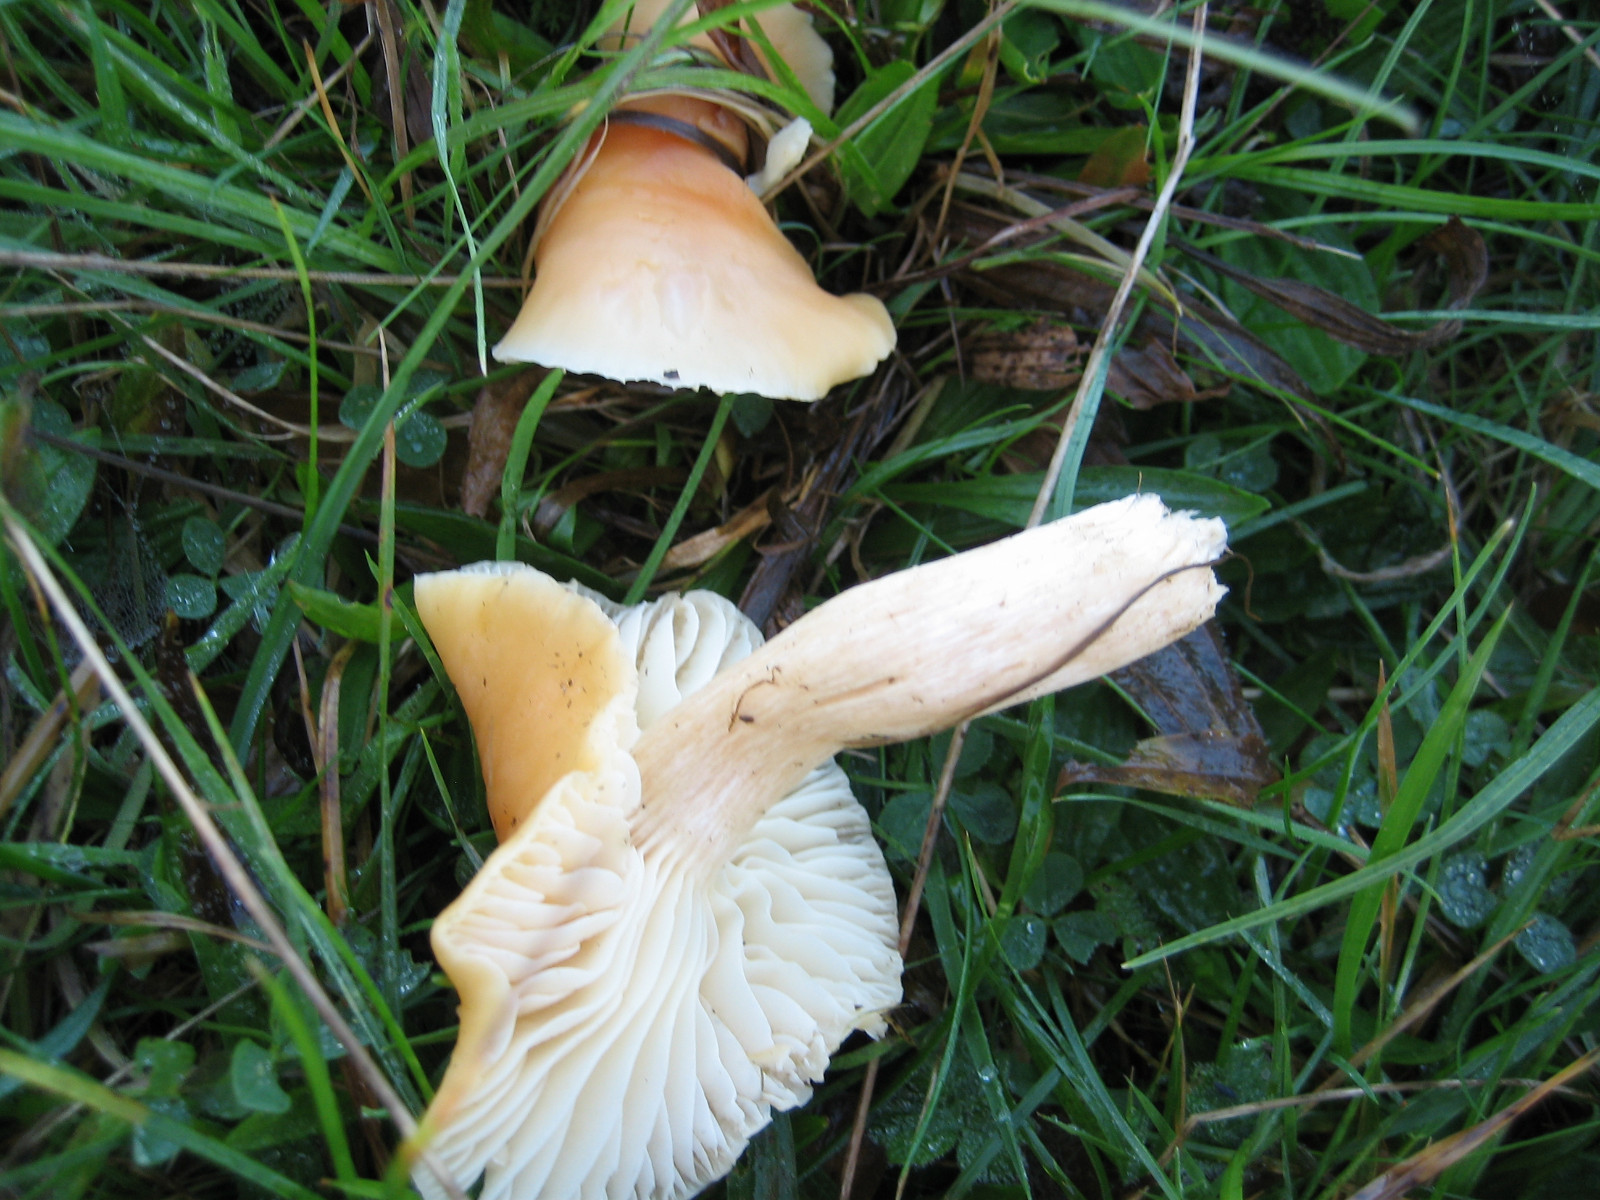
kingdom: Fungi
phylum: Basidiomycota
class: Agaricomycetes
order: Agaricales
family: Hygrophoraceae
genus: Cuphophyllus
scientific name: Cuphophyllus pratensis
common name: eng-vokshat
